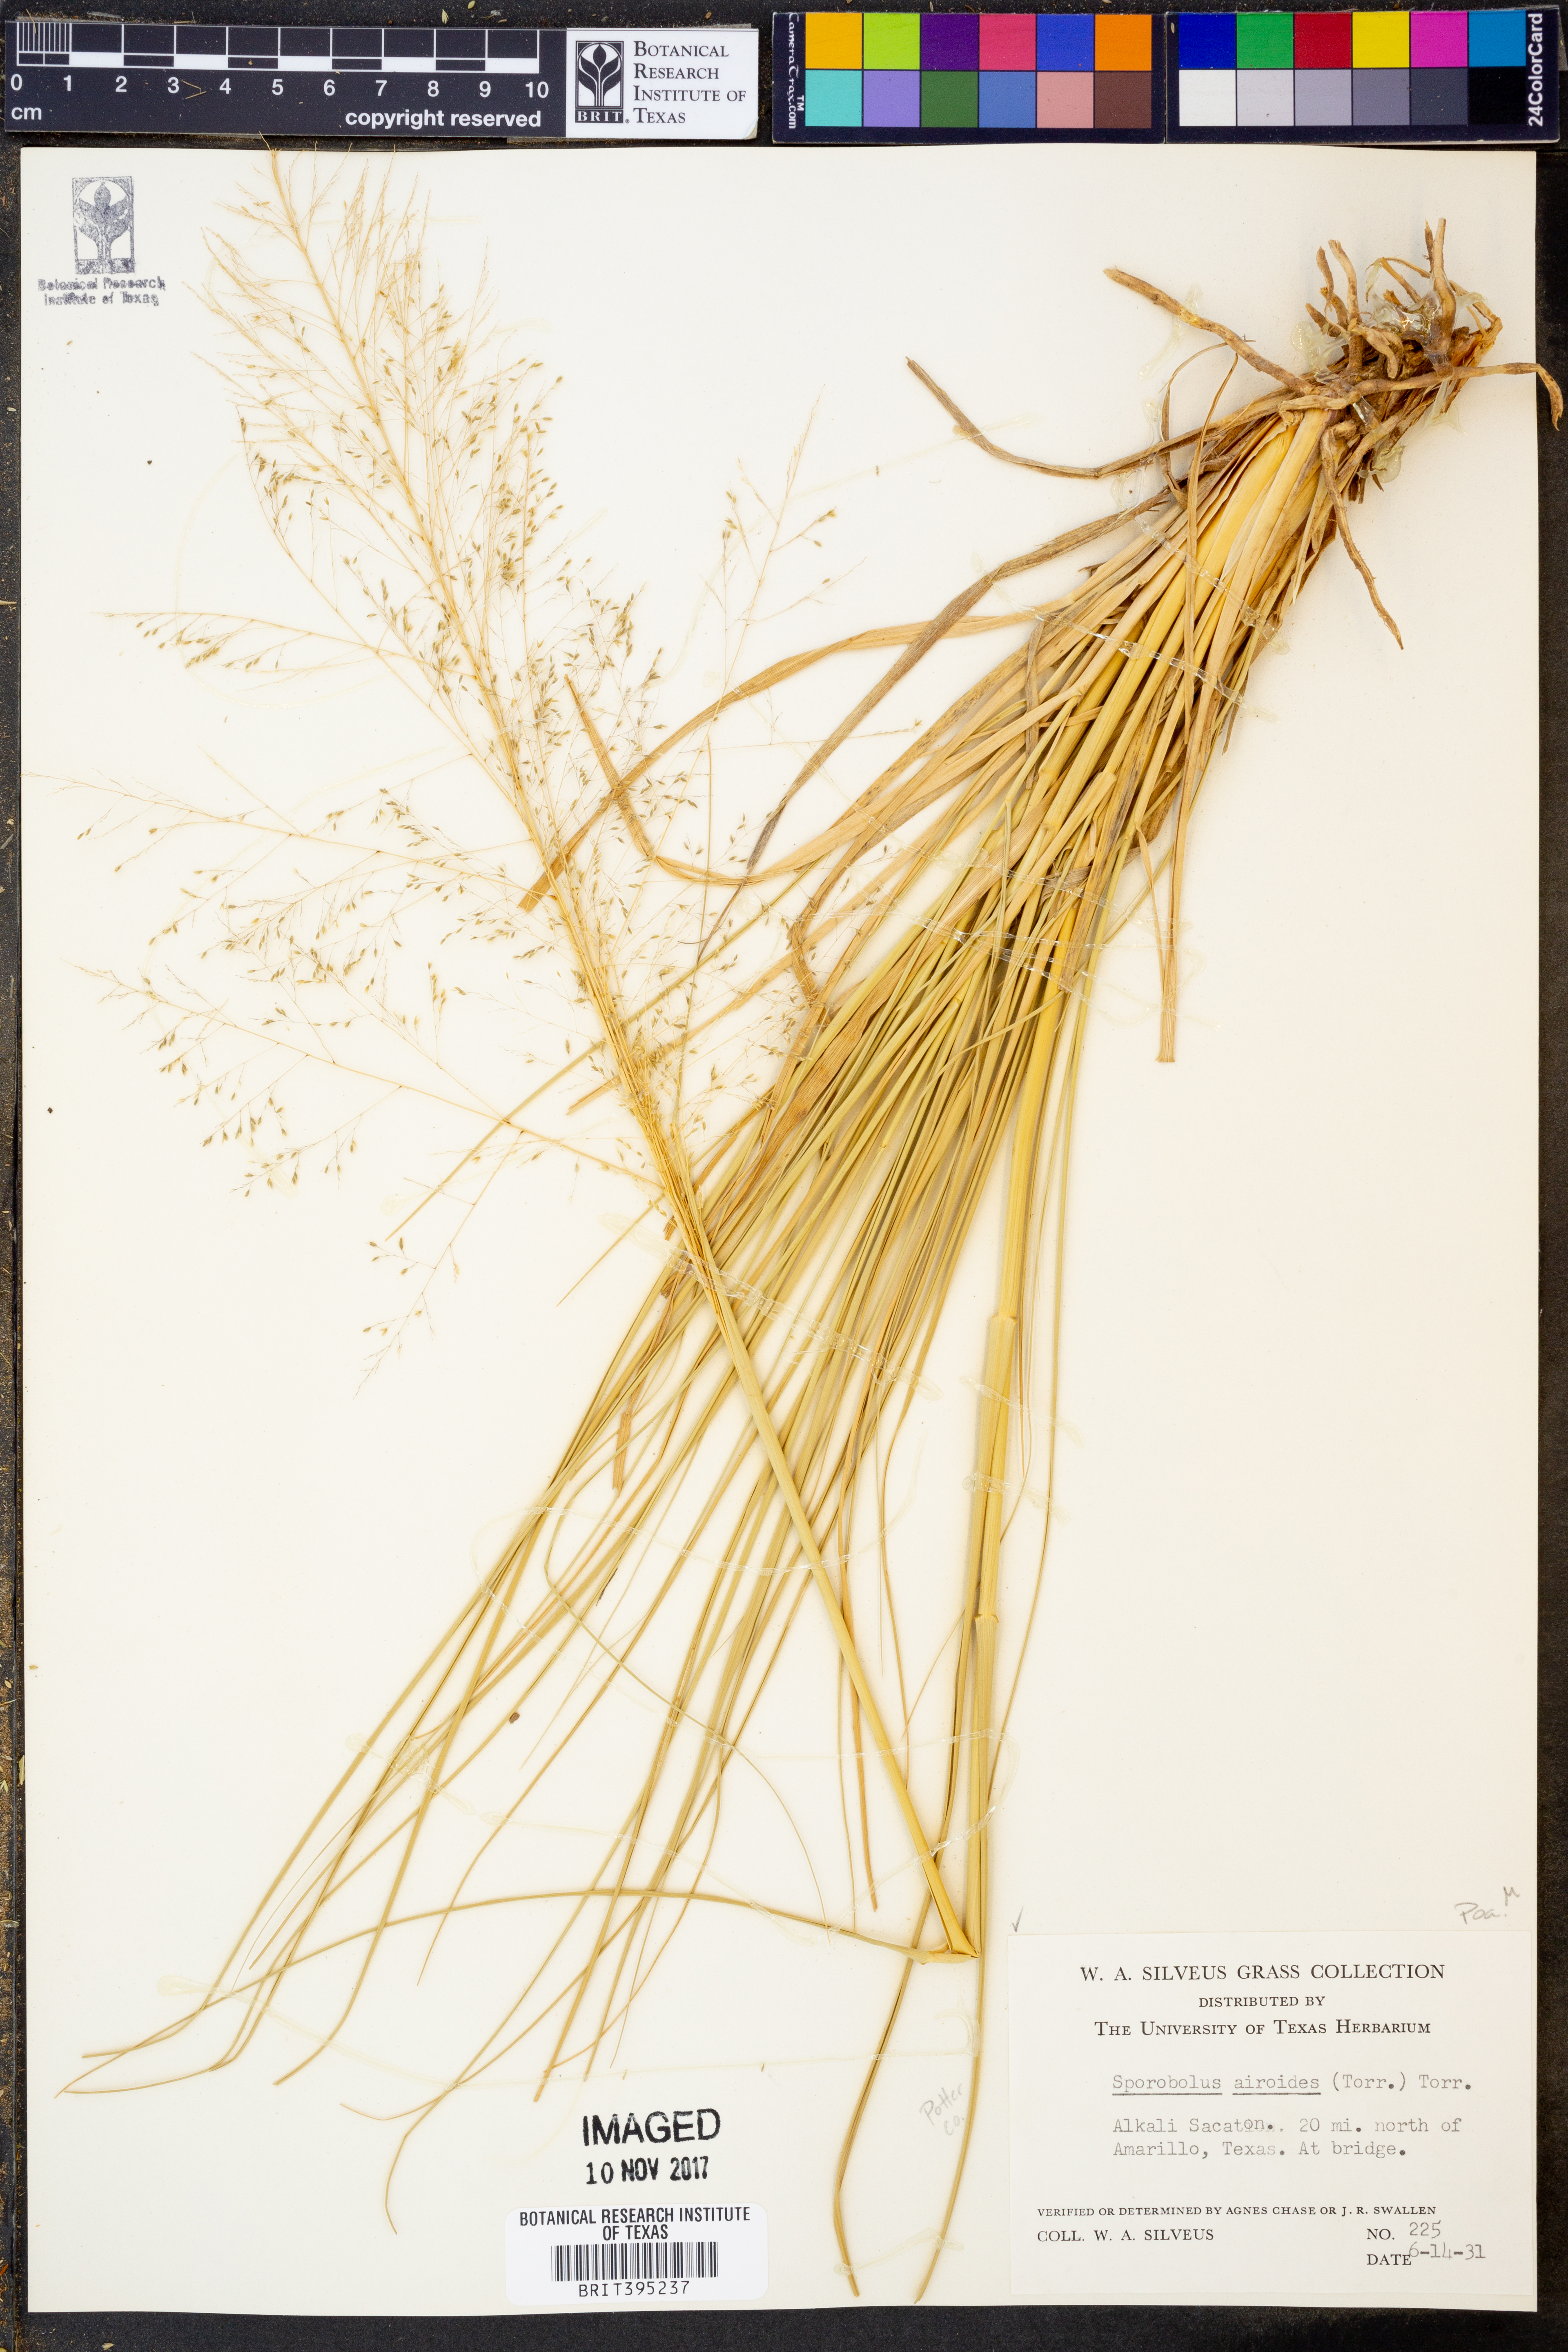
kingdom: Plantae
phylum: Tracheophyta
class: Liliopsida
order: Poales
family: Poaceae
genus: Sporobolus
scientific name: Sporobolus airoides
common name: Alkali sacaton
